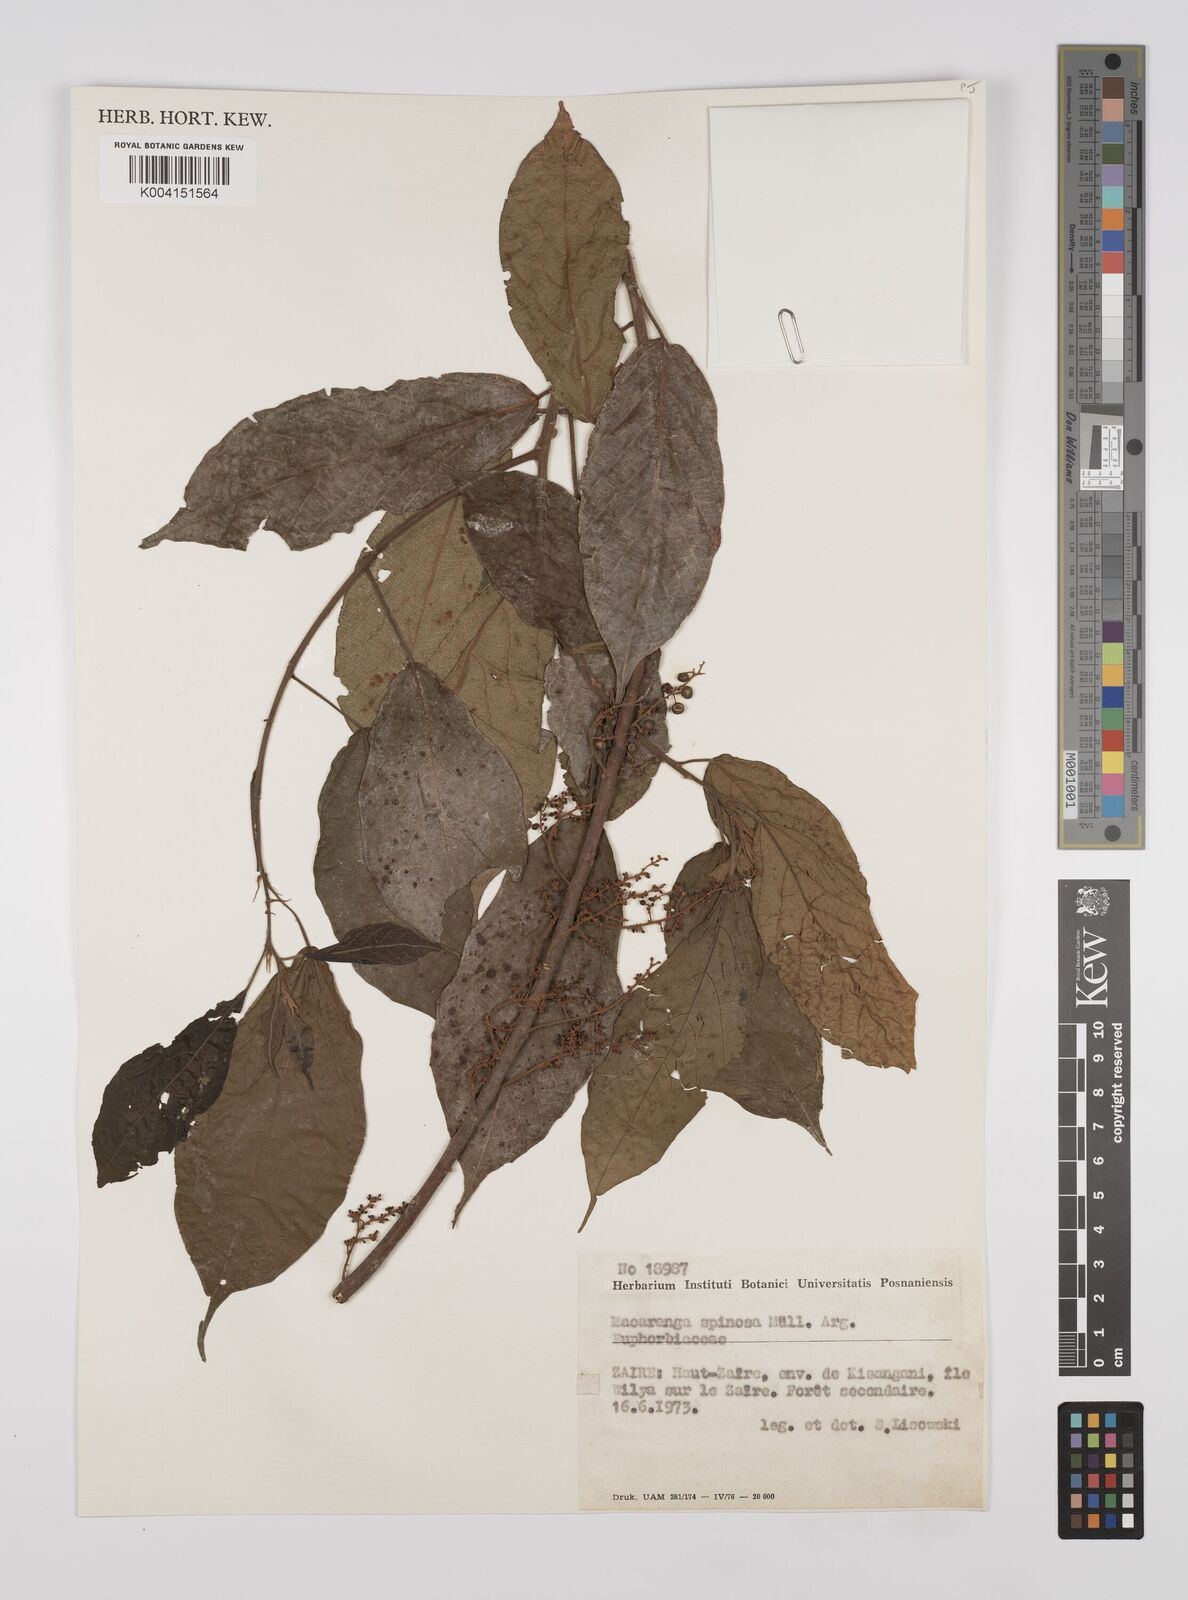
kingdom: Plantae
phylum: Tracheophyta
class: Magnoliopsida
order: Malpighiales
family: Euphorbiaceae
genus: Macaranga
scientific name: Macaranga spinosa
